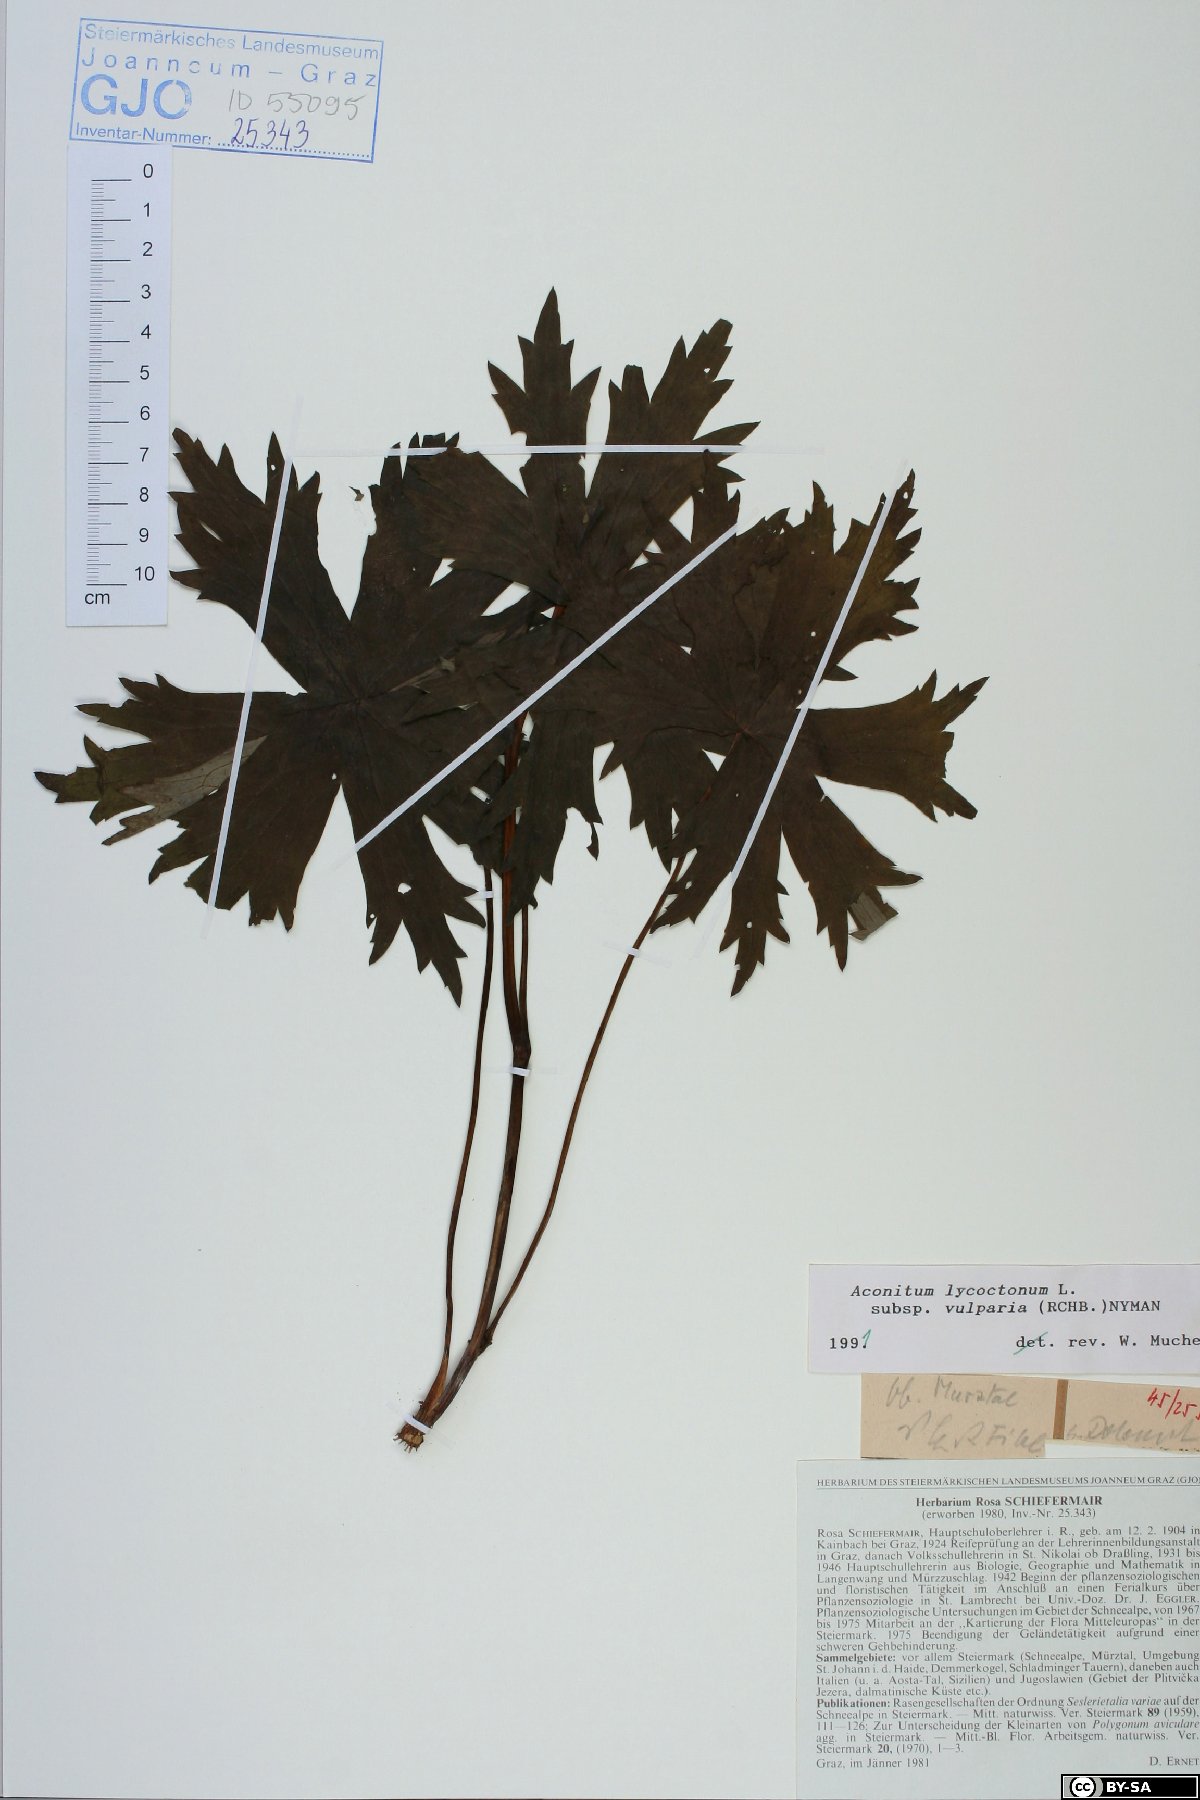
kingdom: Plantae
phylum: Tracheophyta
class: Magnoliopsida
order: Ranunculales
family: Ranunculaceae
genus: Aconitum
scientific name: Aconitum lycoctonum
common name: Wolf's-bane
